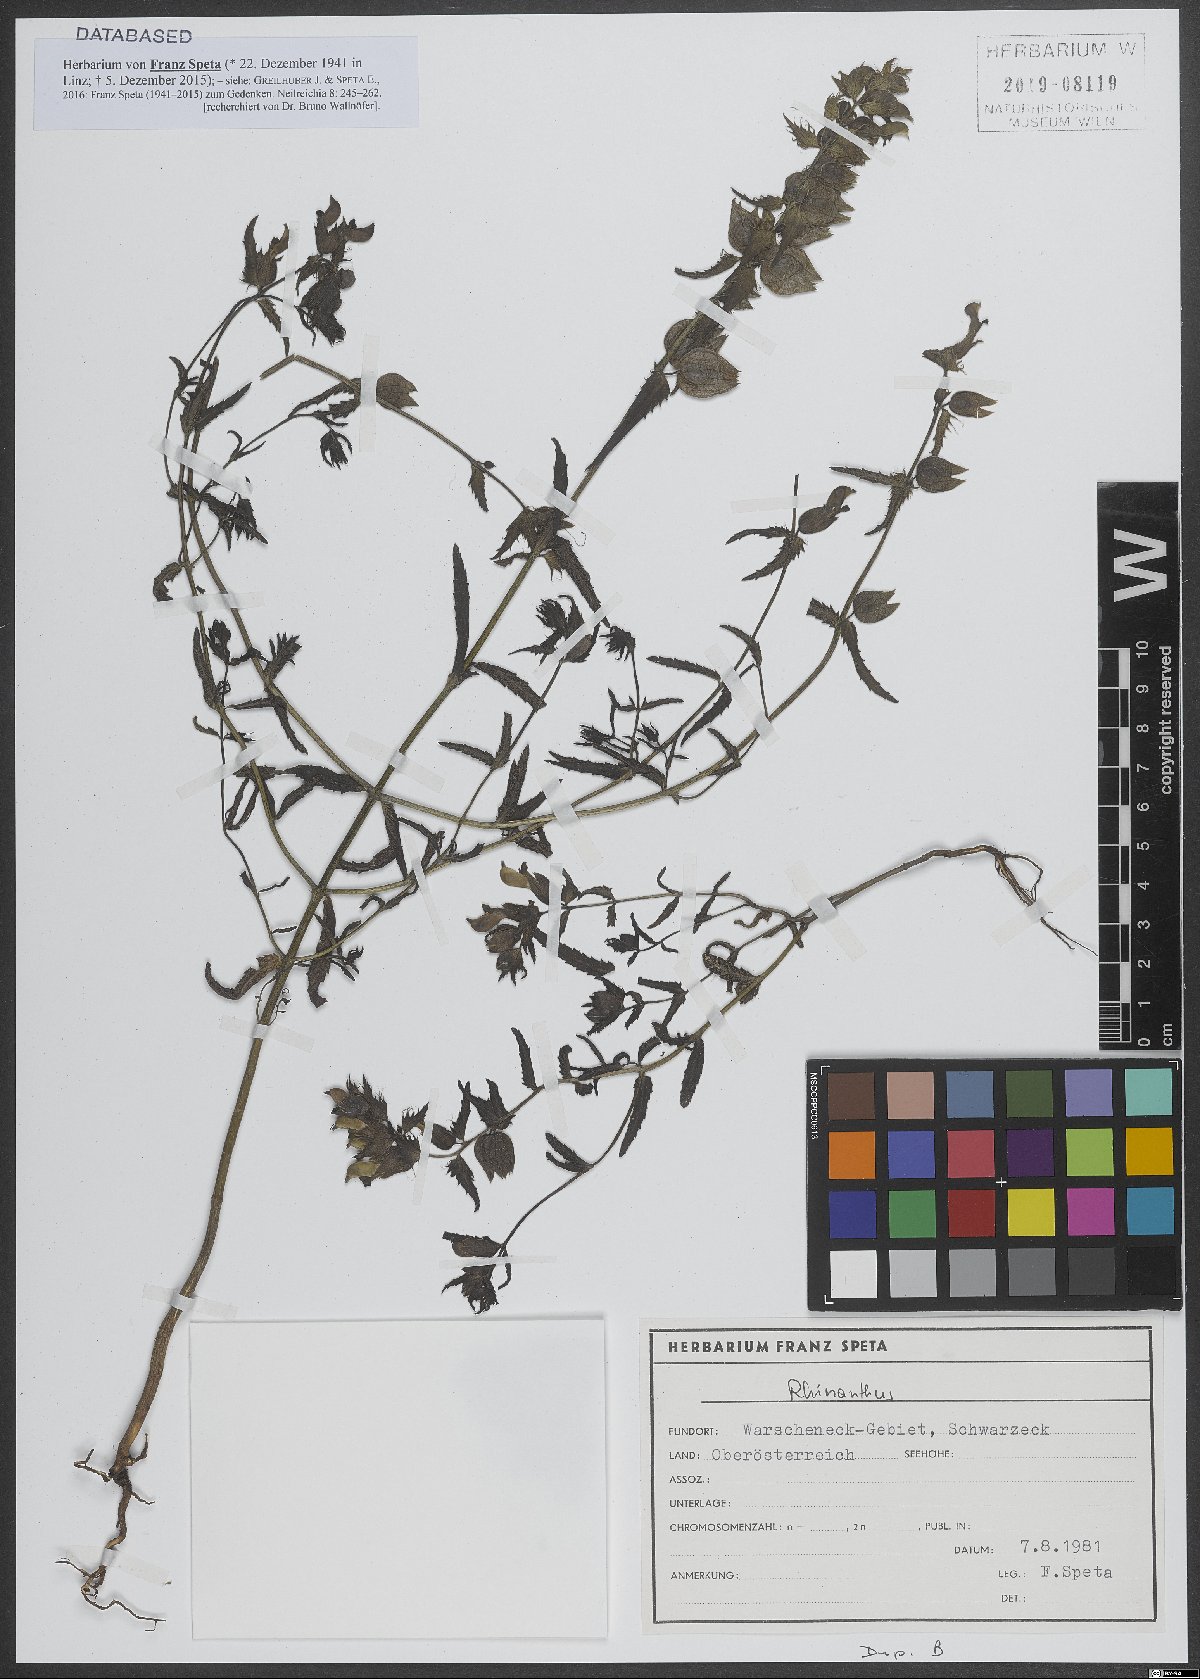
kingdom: Plantae
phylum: Tracheophyta
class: Magnoliopsida
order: Lamiales
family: Orobanchaceae
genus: Rhinanthus
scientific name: Rhinanthus
